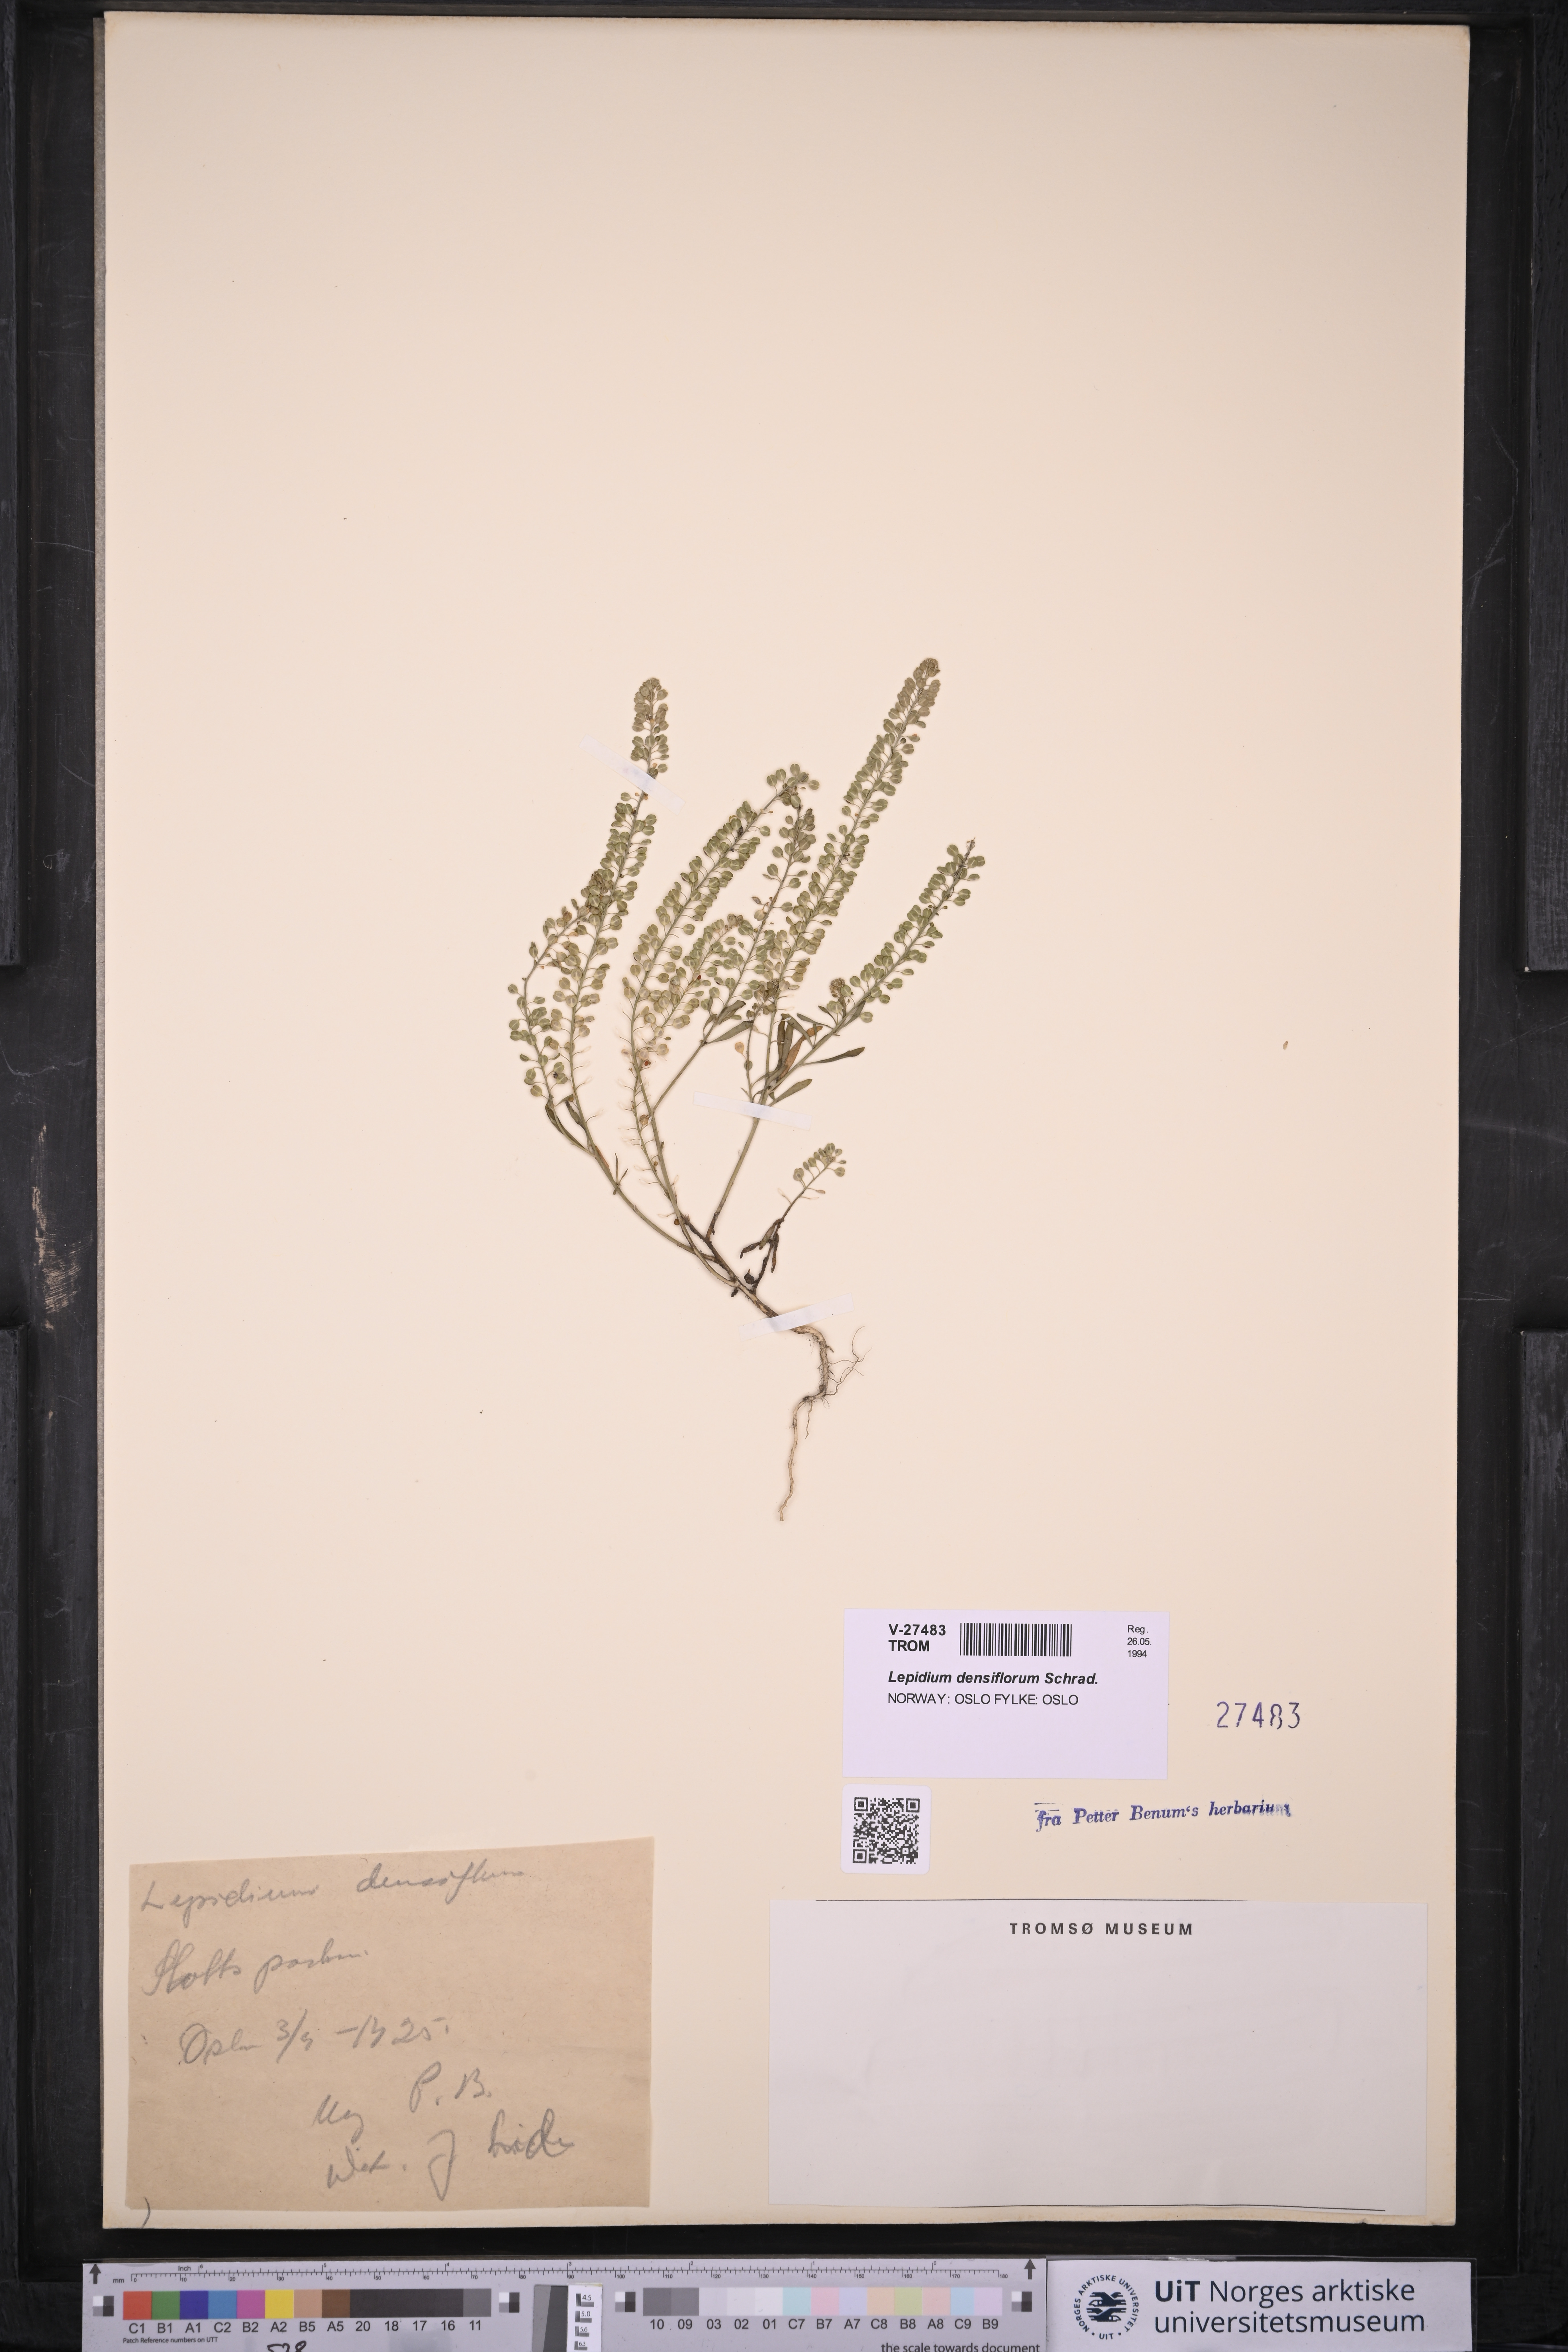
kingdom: Plantae
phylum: Tracheophyta
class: Magnoliopsida
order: Brassicales
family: Brassicaceae
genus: Lepidium
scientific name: Lepidium densiflorum
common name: Miner's pepperwort
